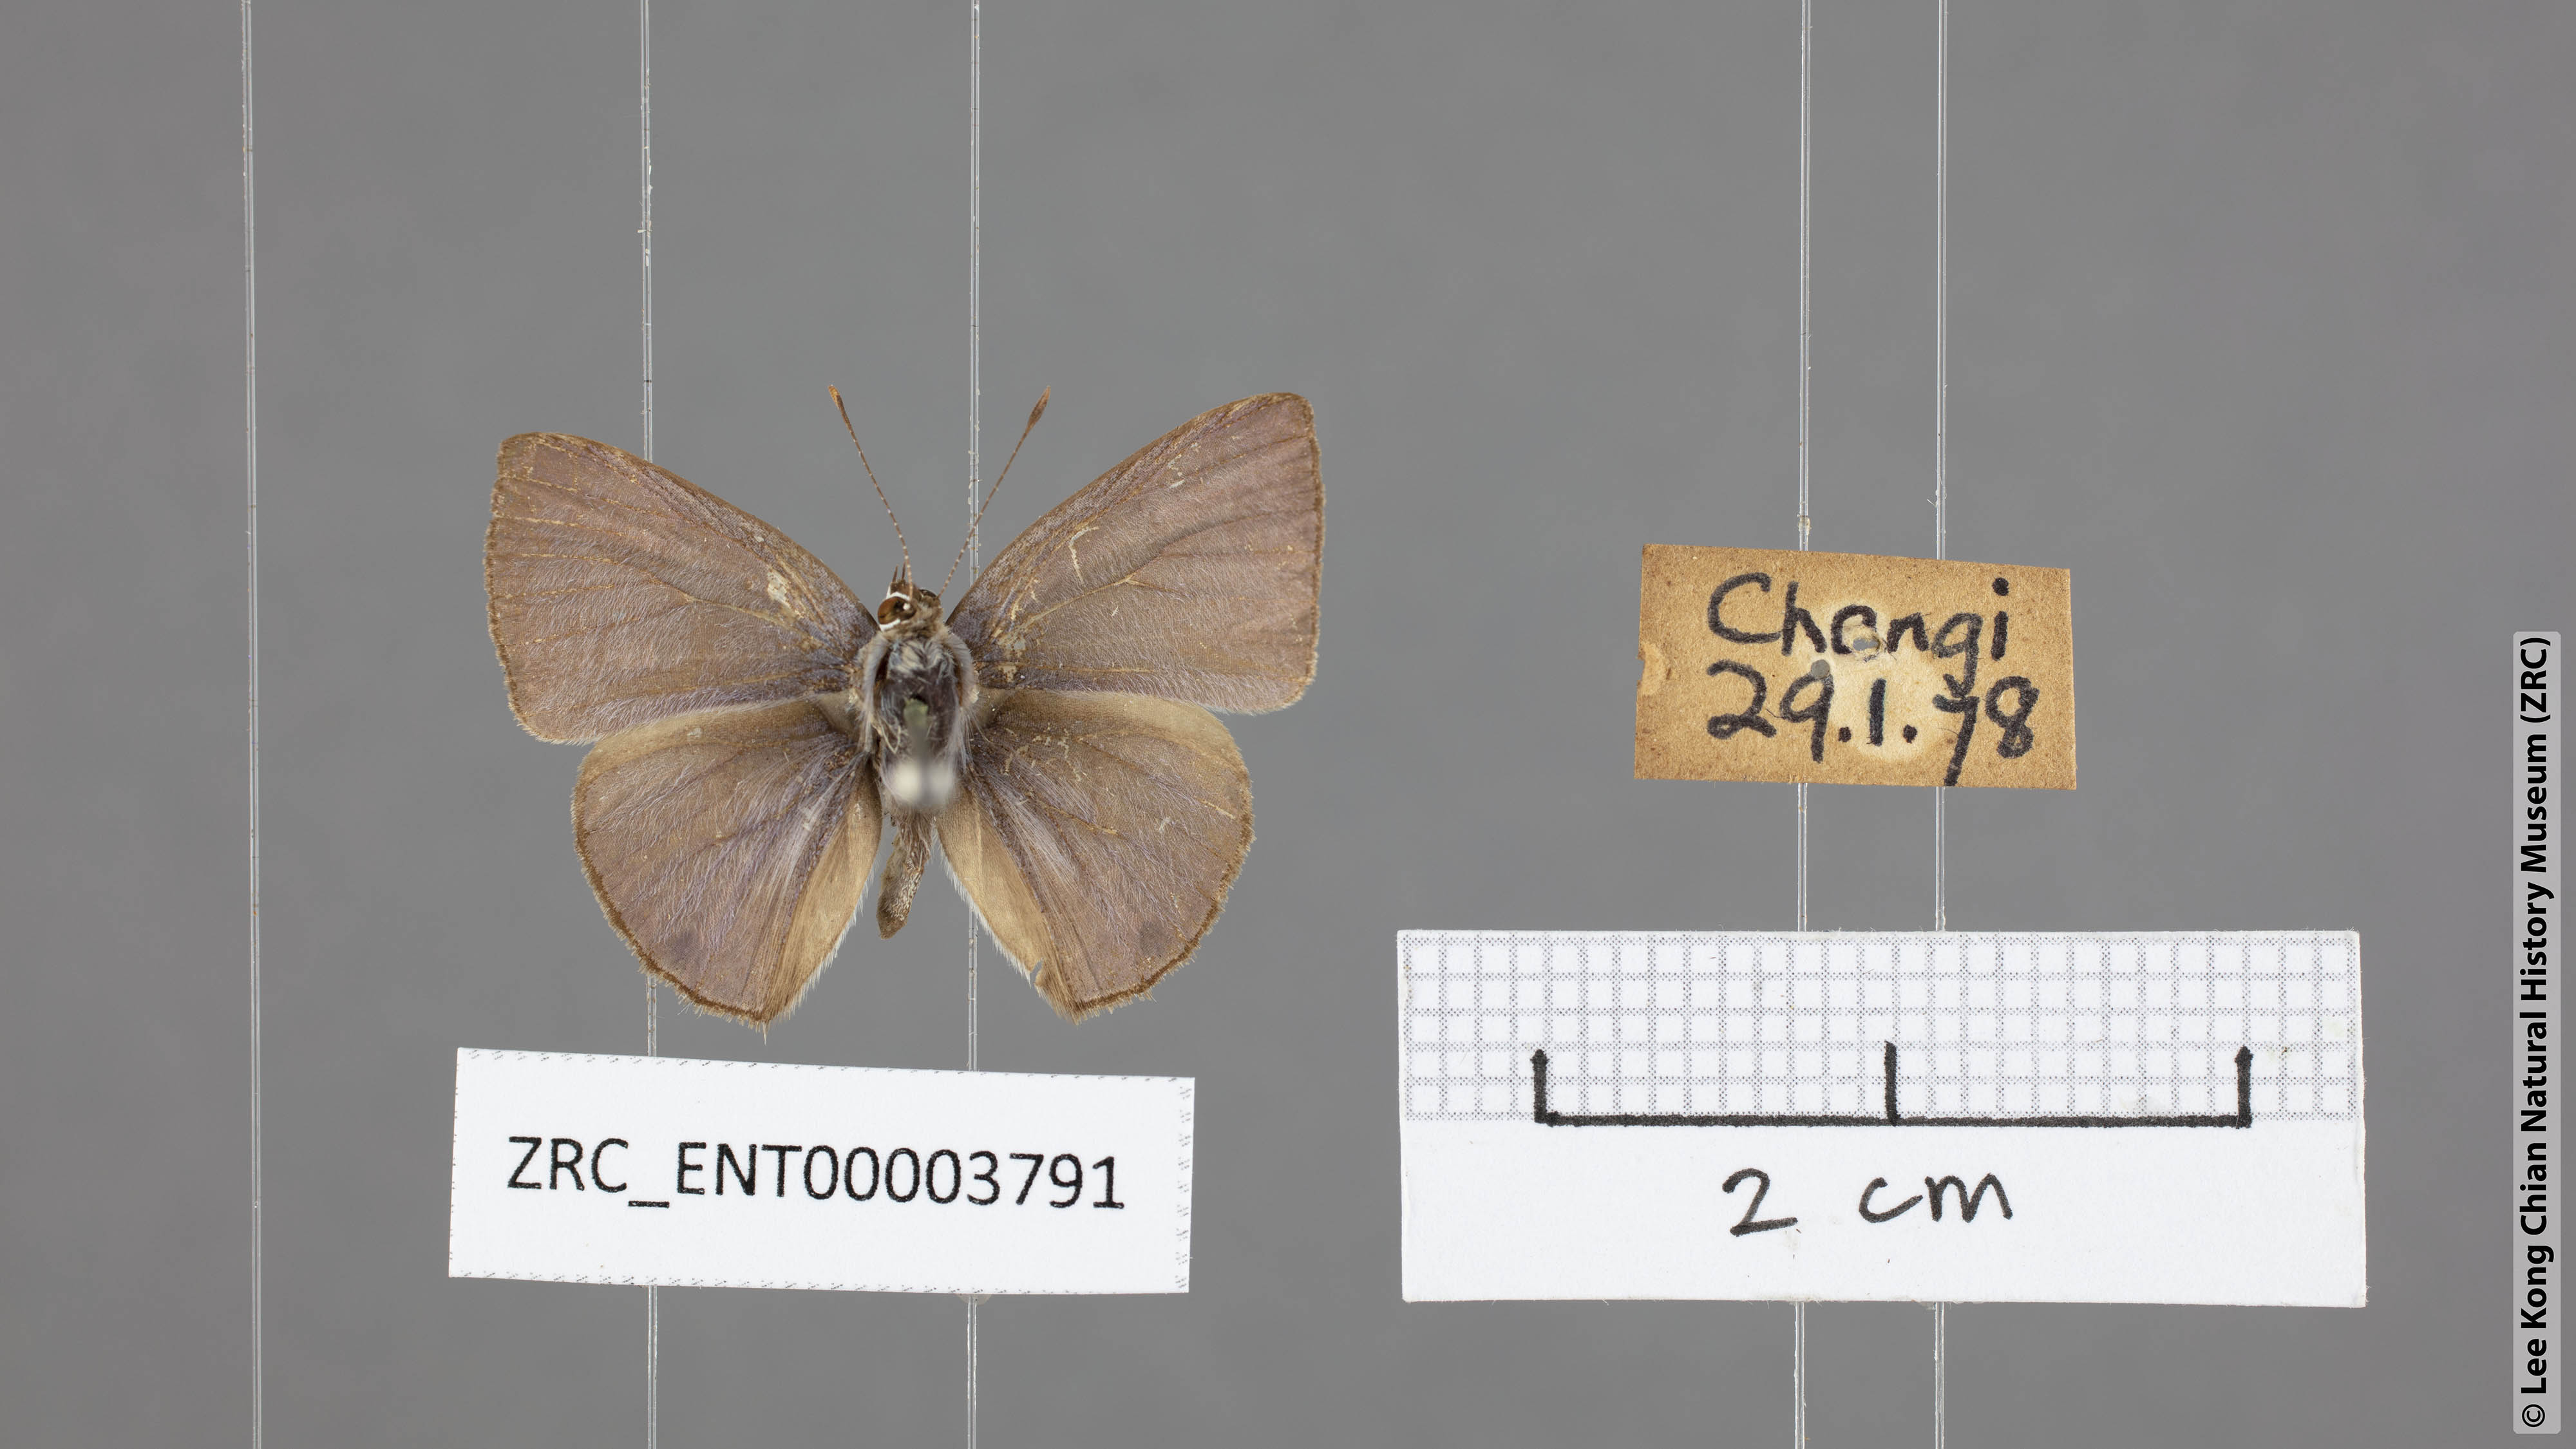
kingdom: Animalia
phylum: Arthropoda
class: Insecta
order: Lepidoptera
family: Lycaenidae
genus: Anthene
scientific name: Anthene lycaenina
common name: Pointed ciliate blue
